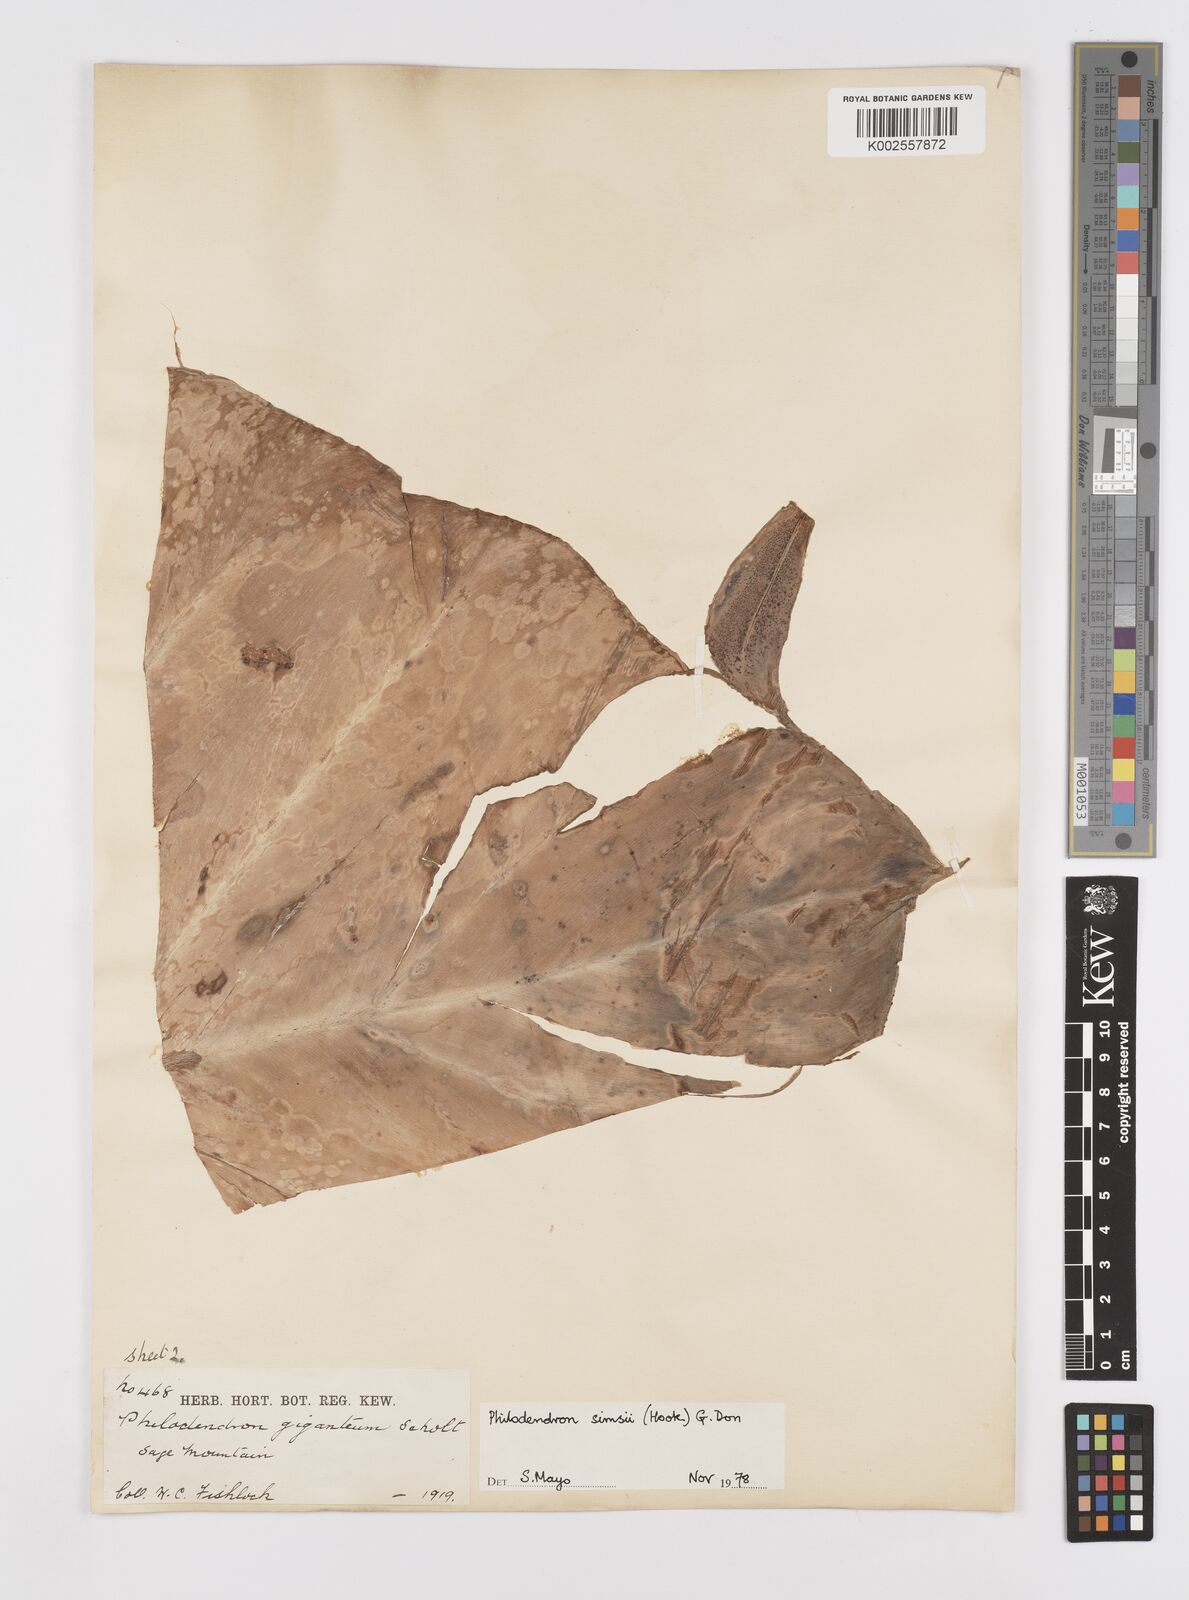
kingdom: Plantae
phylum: Tracheophyta
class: Liliopsida
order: Alismatales
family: Araceae
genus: Philodendron
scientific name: Philodendron
